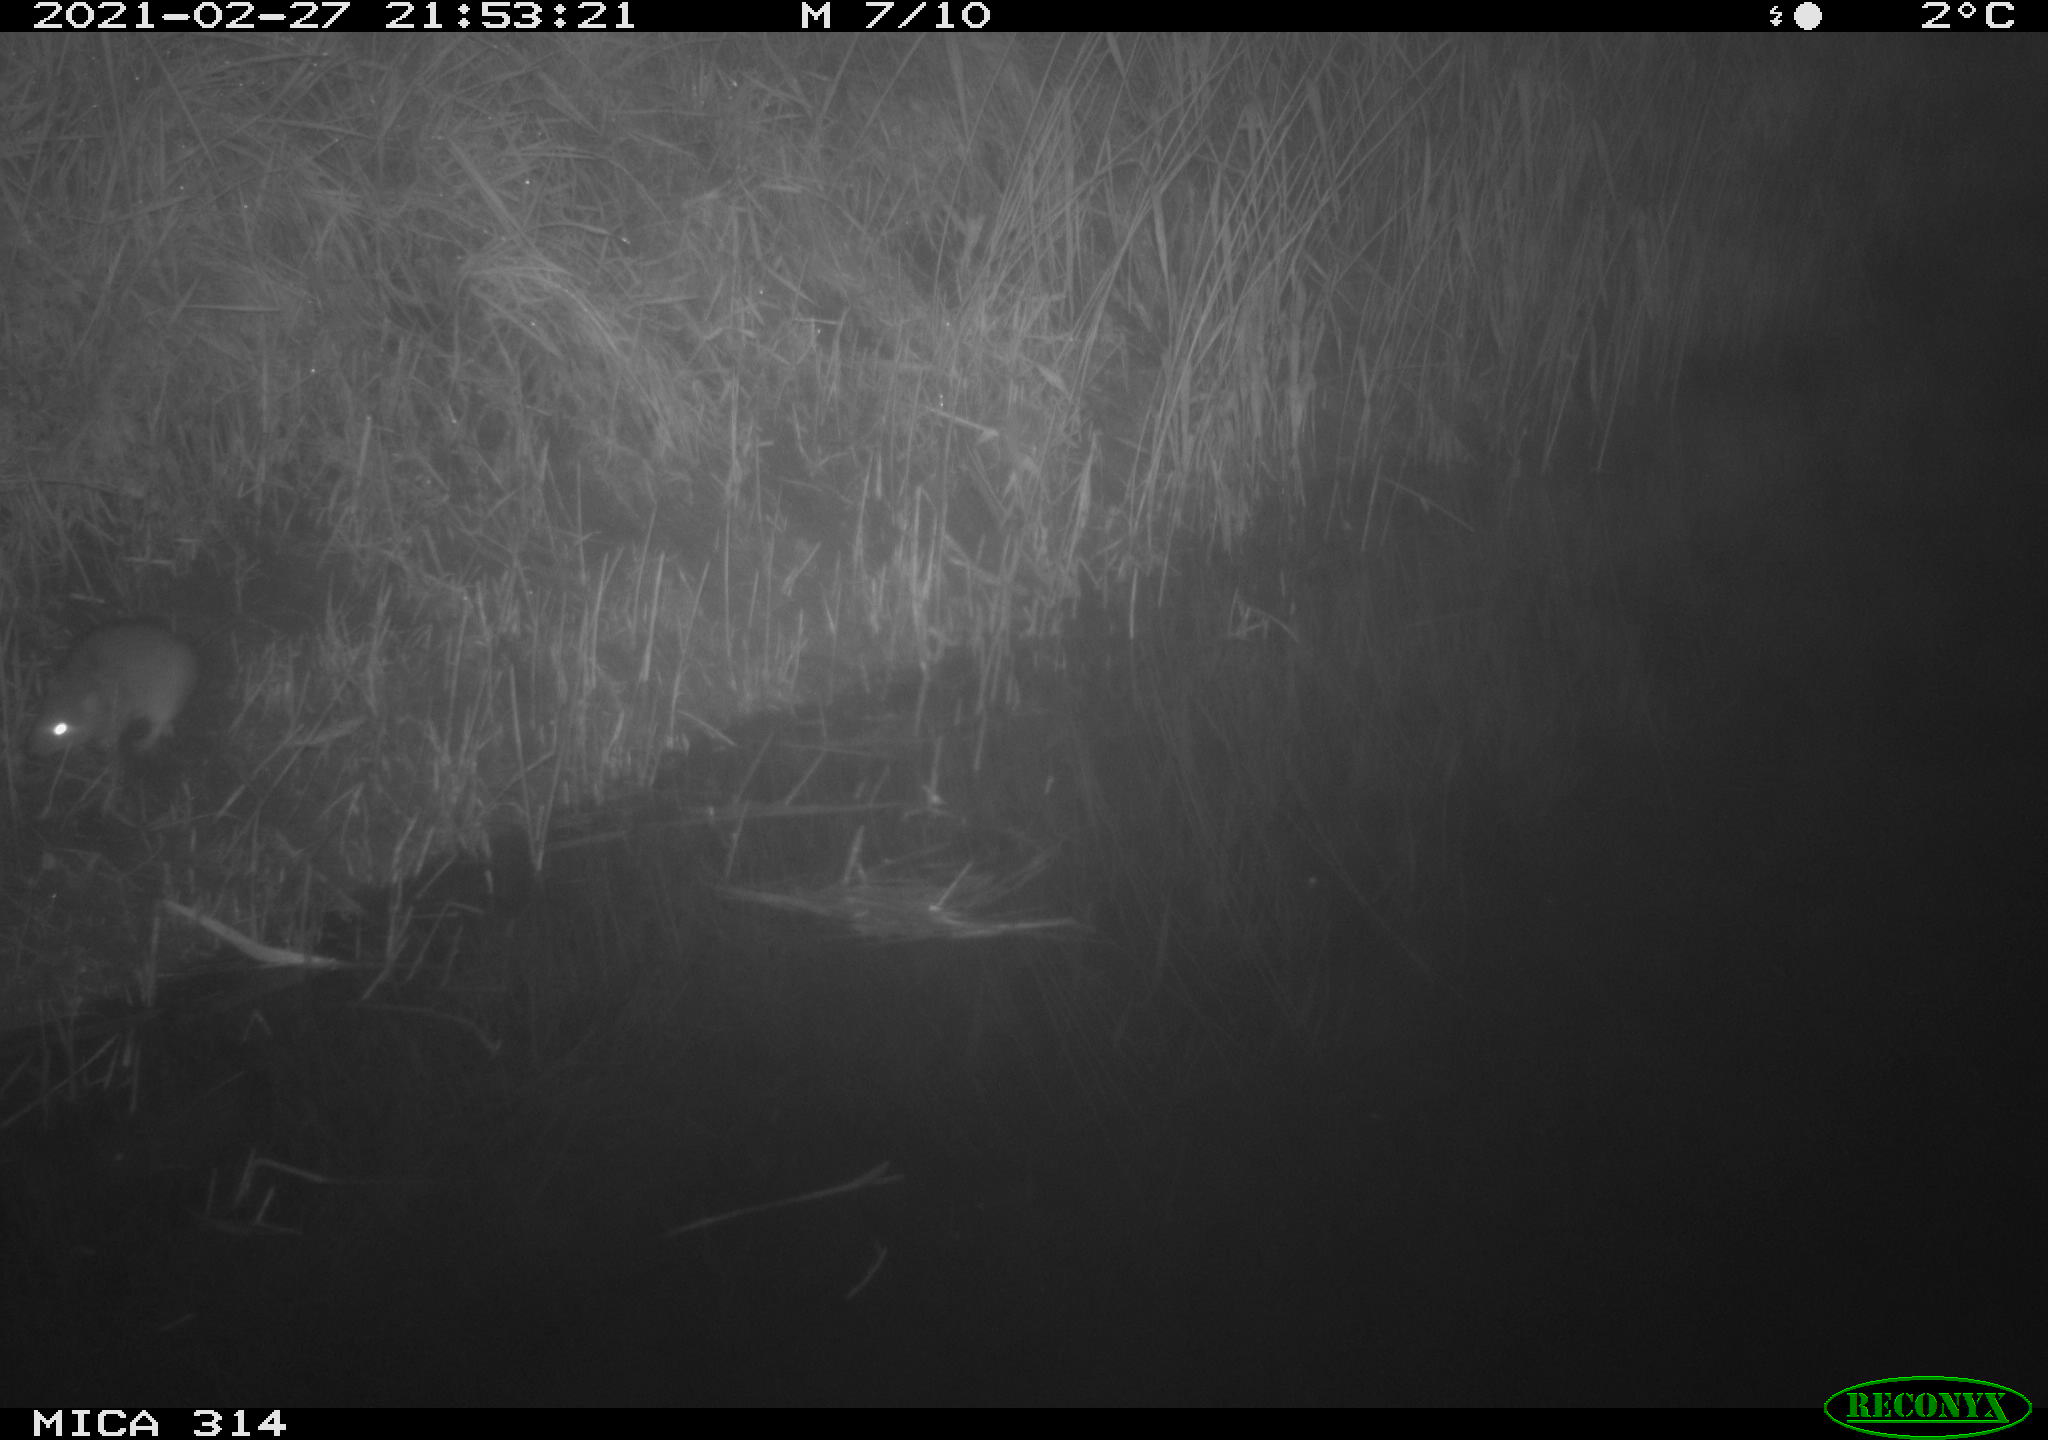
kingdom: Animalia
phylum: Chordata
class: Mammalia
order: Rodentia
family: Muridae
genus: Rattus
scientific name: Rattus norvegicus
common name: Brown rat
